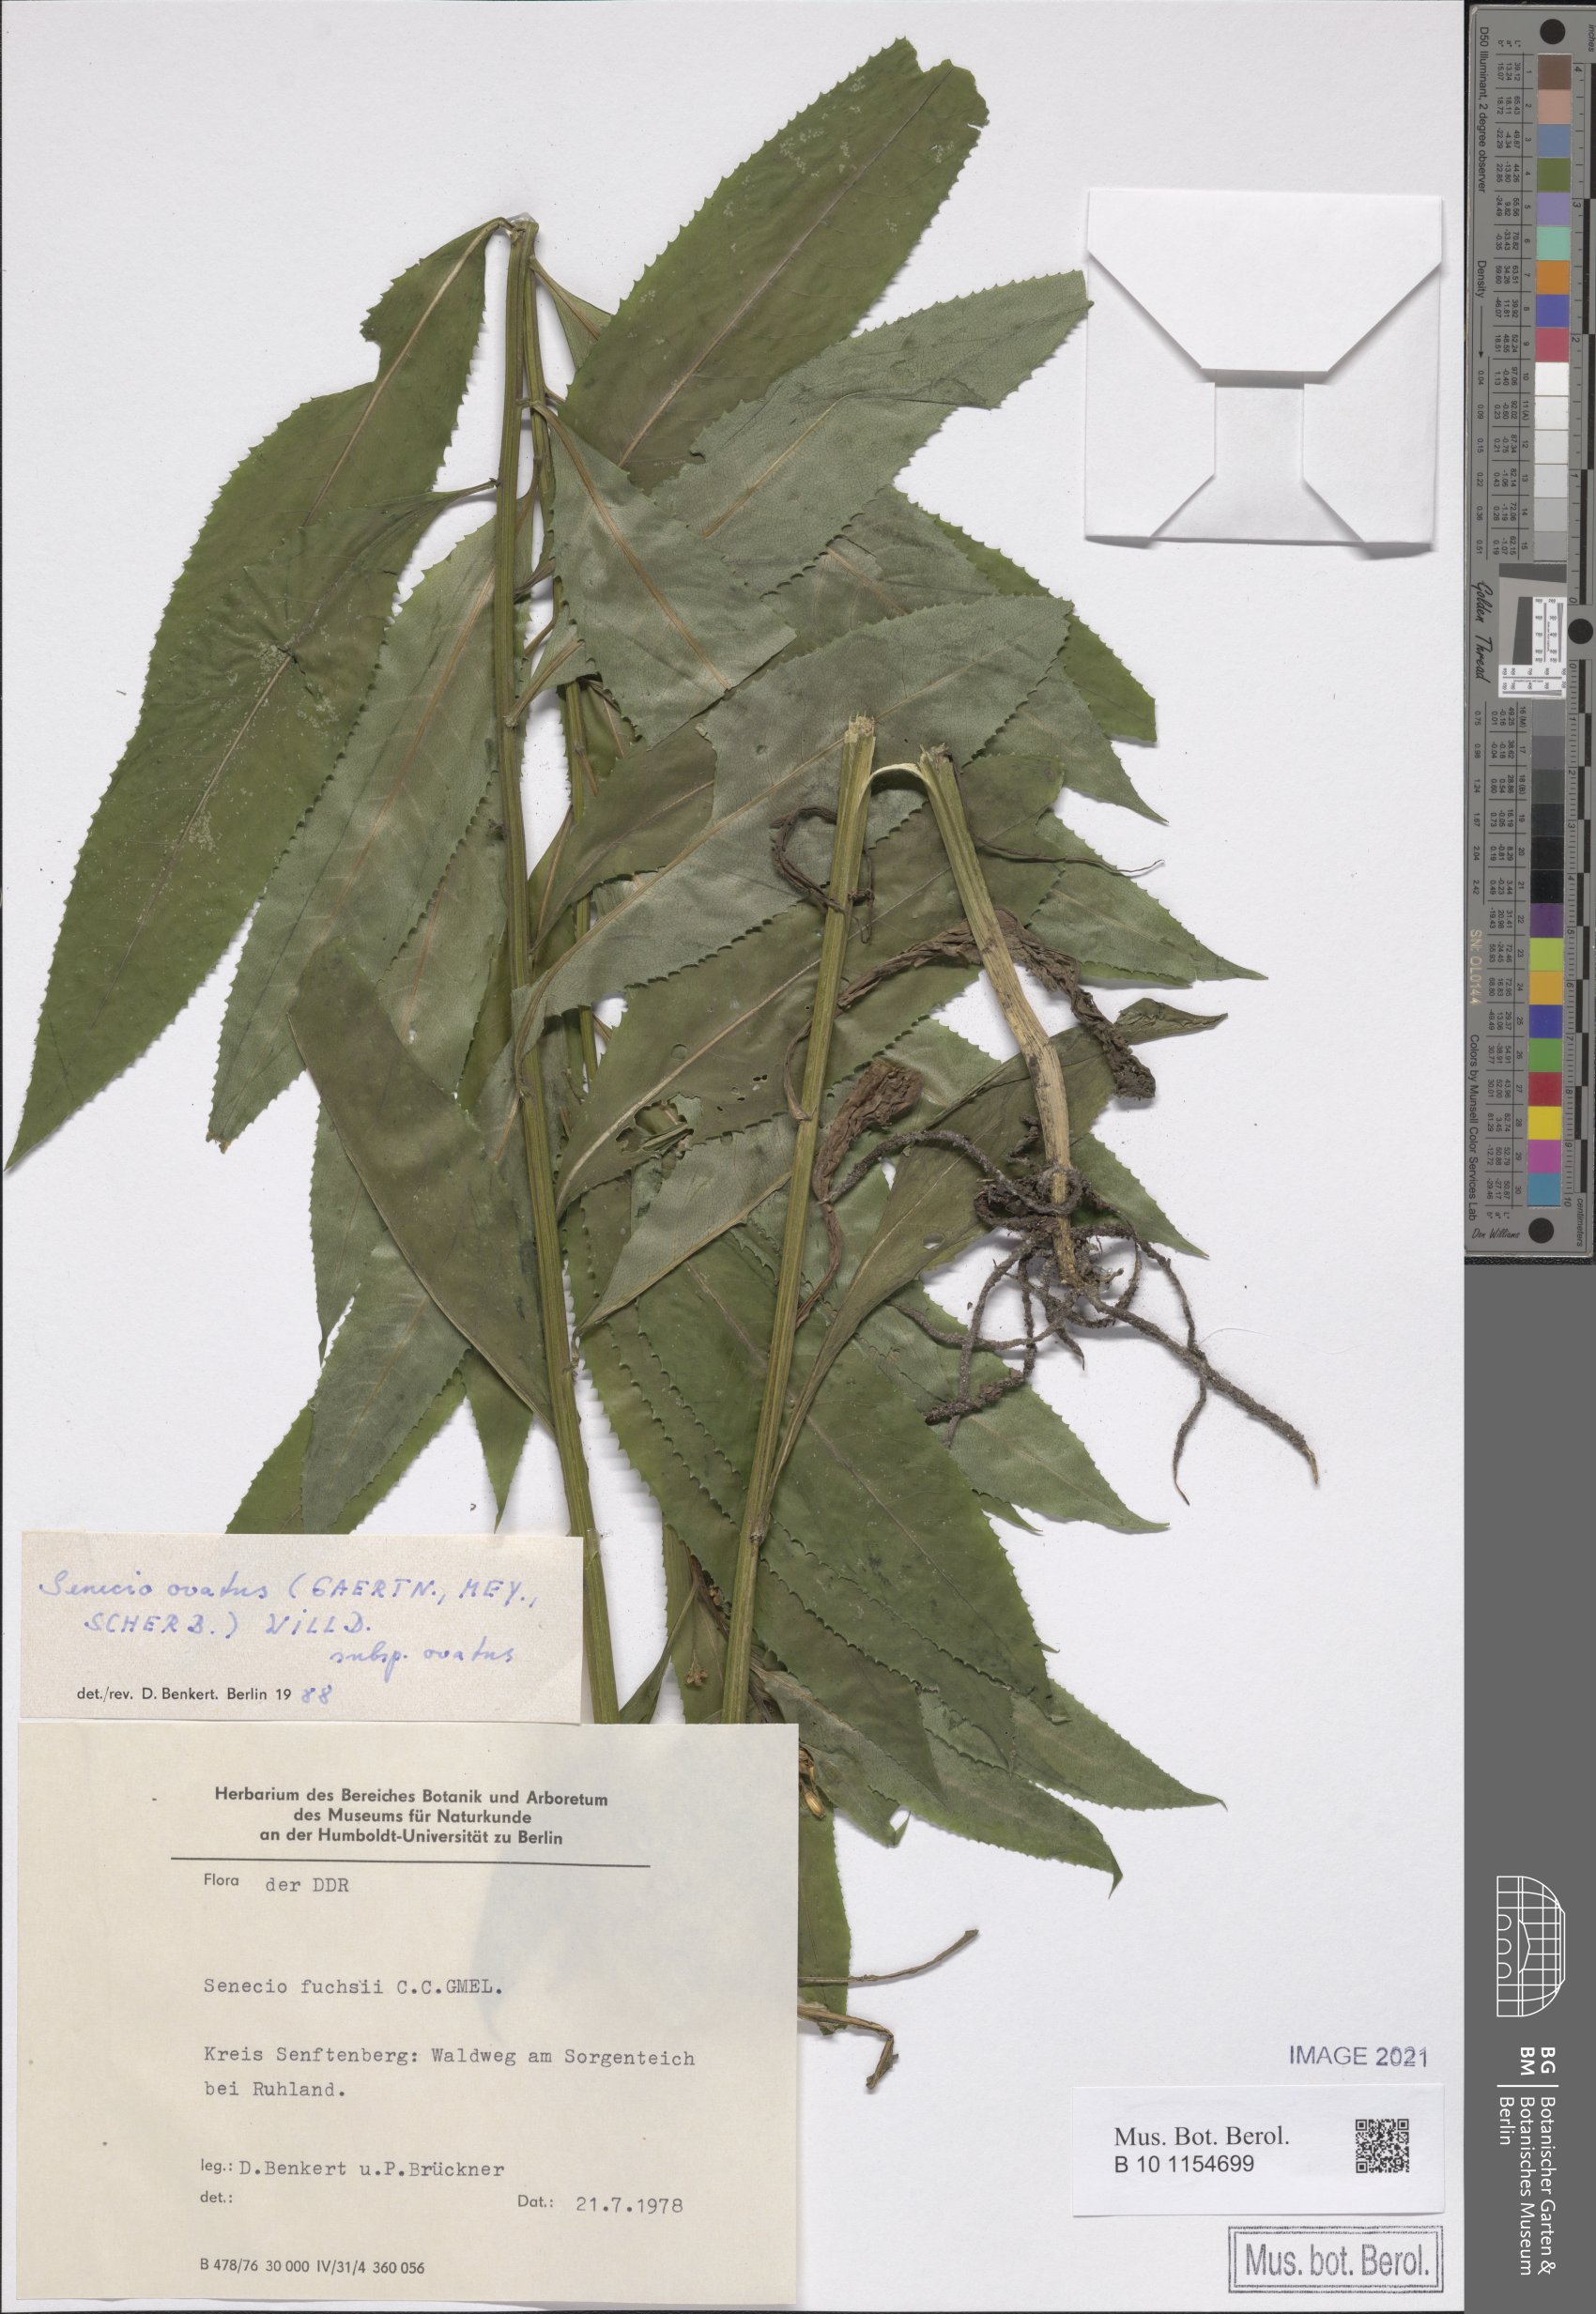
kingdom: Plantae
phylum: Tracheophyta
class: Magnoliopsida
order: Asterales
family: Asteraceae
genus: Senecio
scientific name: Senecio ovatus
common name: Wood ragwort
